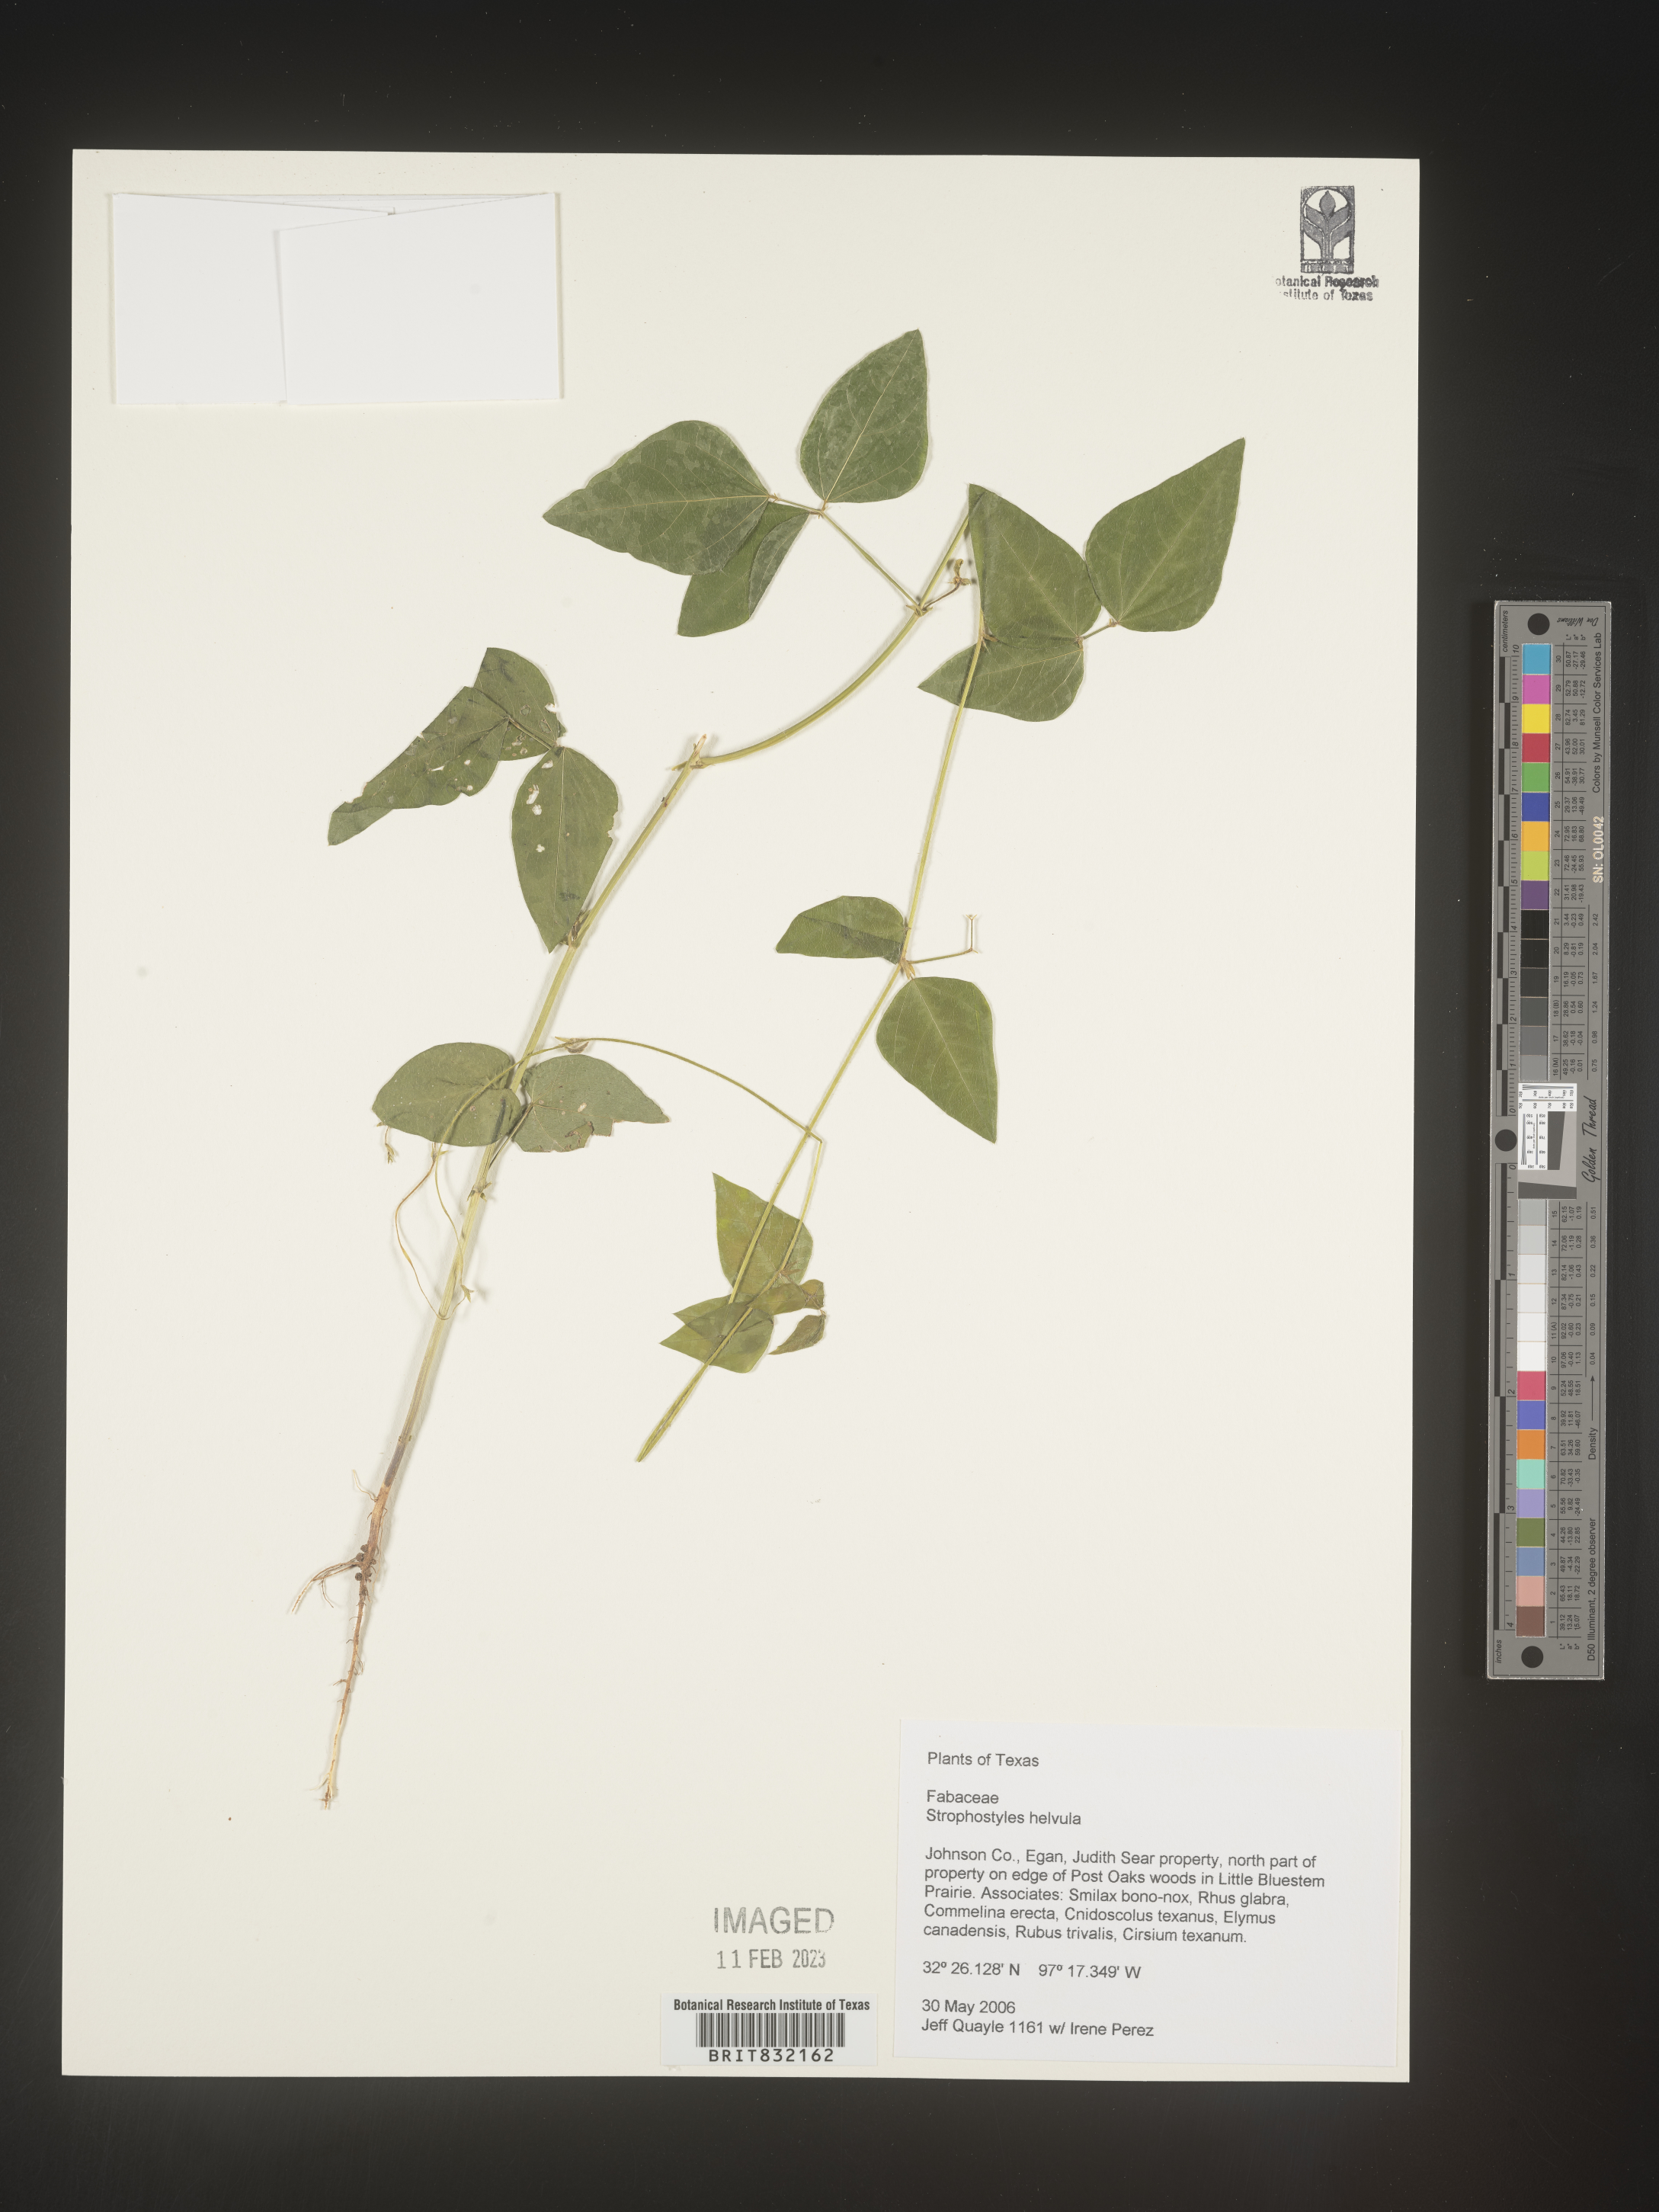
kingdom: Plantae
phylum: Tracheophyta
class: Magnoliopsida
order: Fabales
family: Fabaceae
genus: Strophostyles
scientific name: Strophostyles helvola
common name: Trailing wild bean
